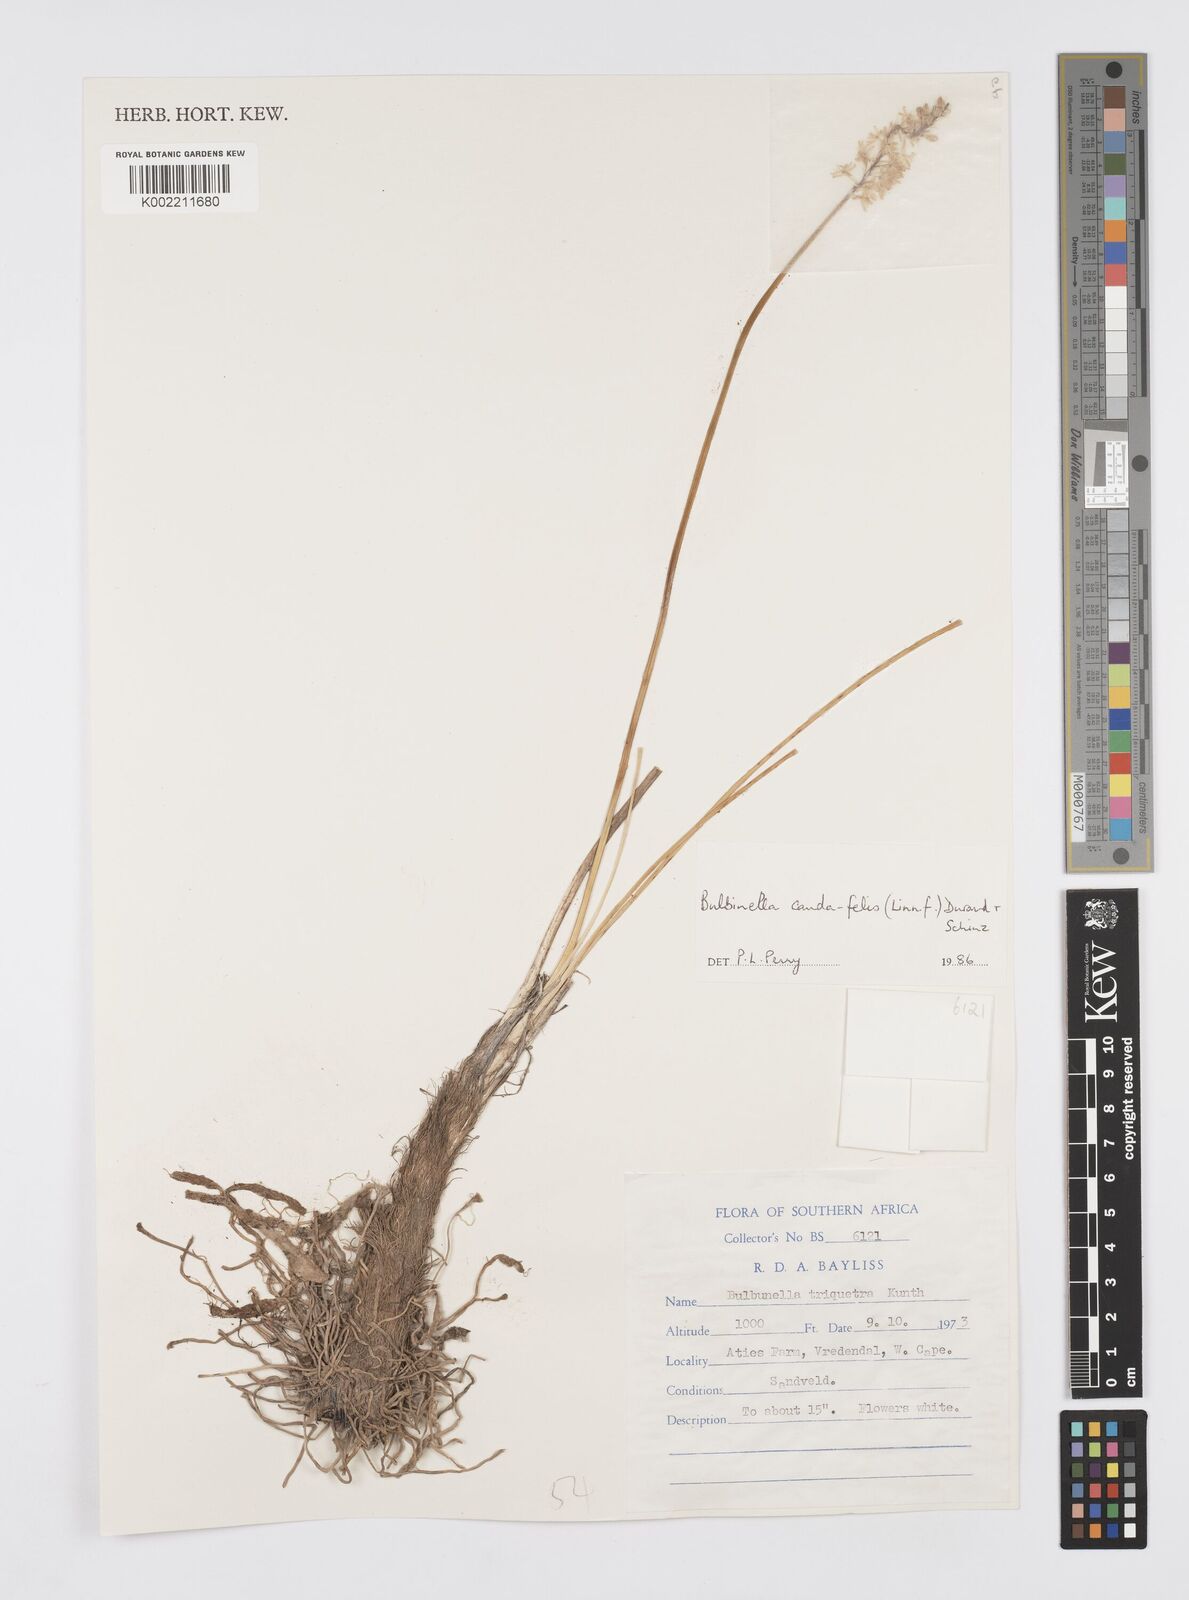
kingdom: Plantae
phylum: Tracheophyta
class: Liliopsida
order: Asparagales
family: Asphodelaceae
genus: Bulbinella
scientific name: Bulbinella cauda-felis
